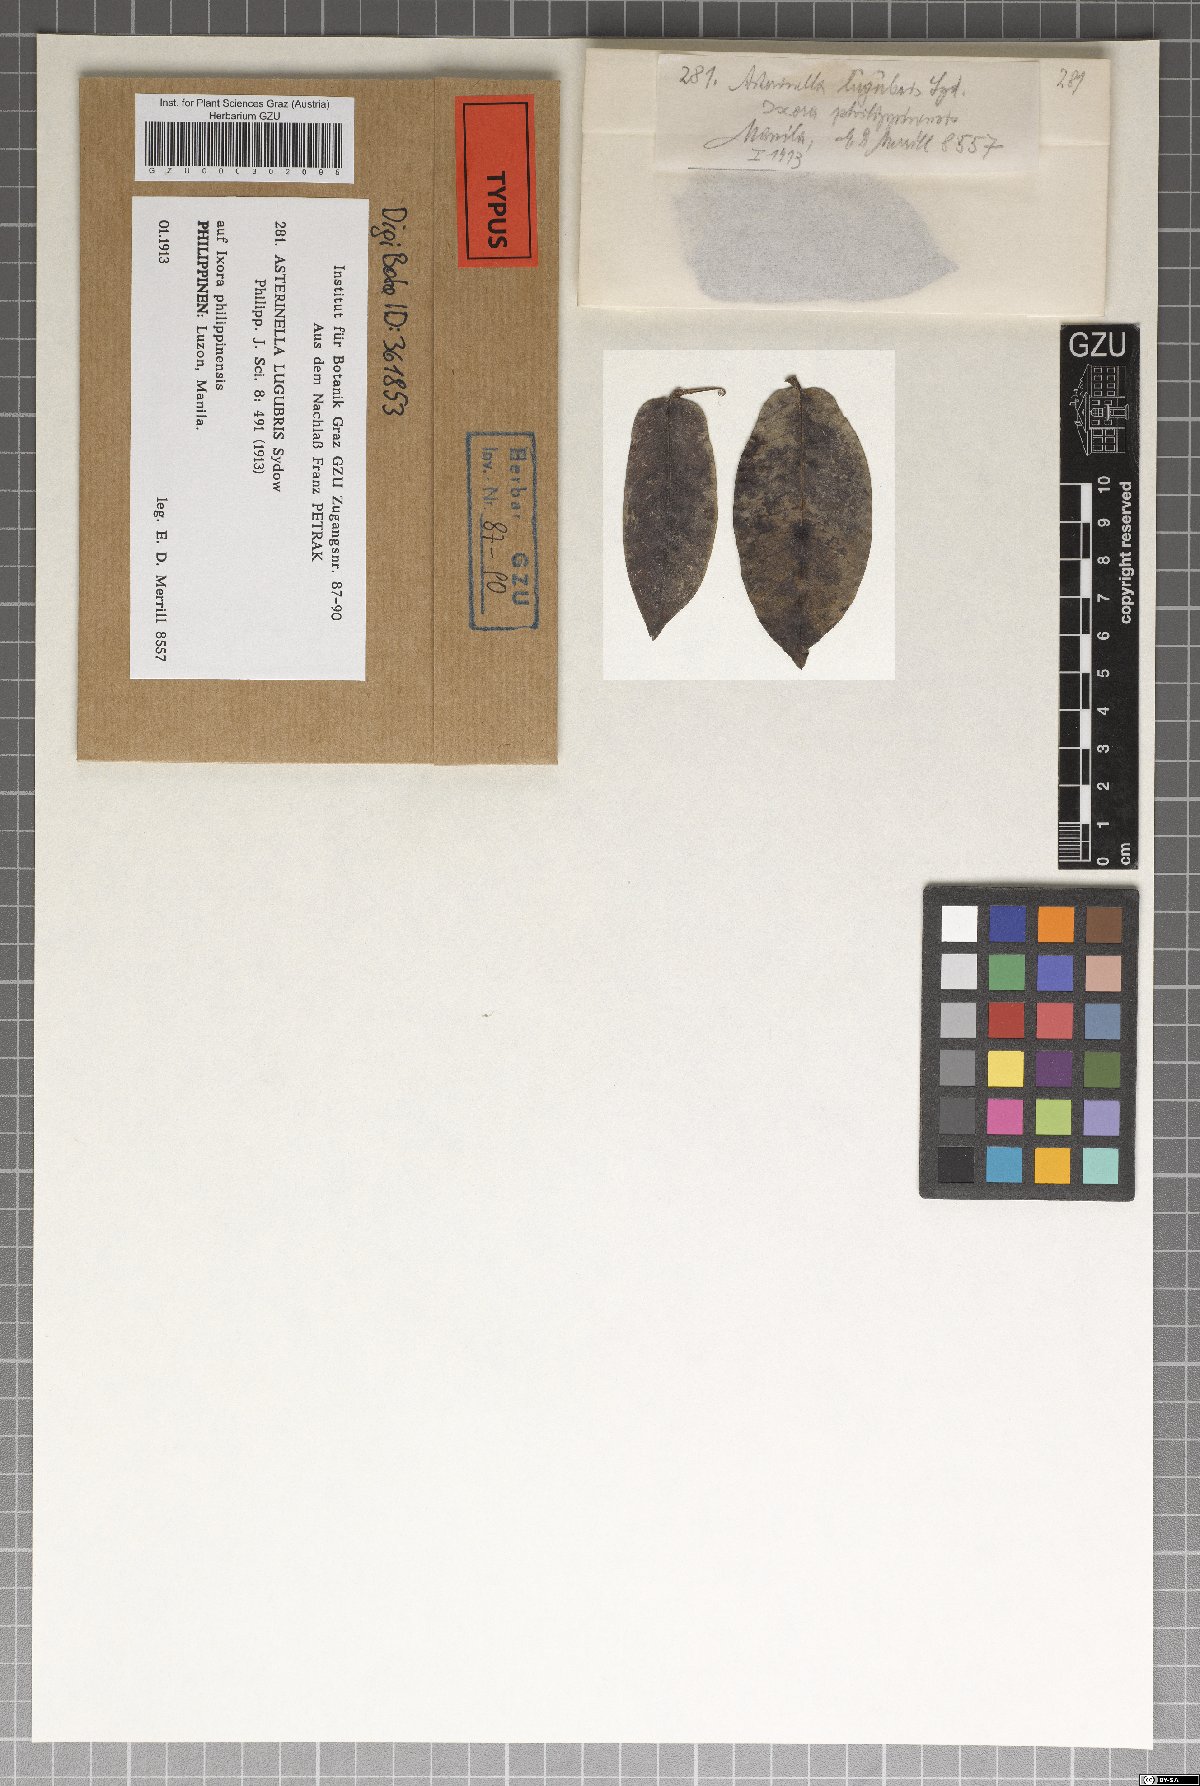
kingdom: Fungi
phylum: Ascomycota
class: Dothideomycetes
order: Microthyriales
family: Microthyriaceae
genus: Asterinella
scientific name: Asterinella lugubris
